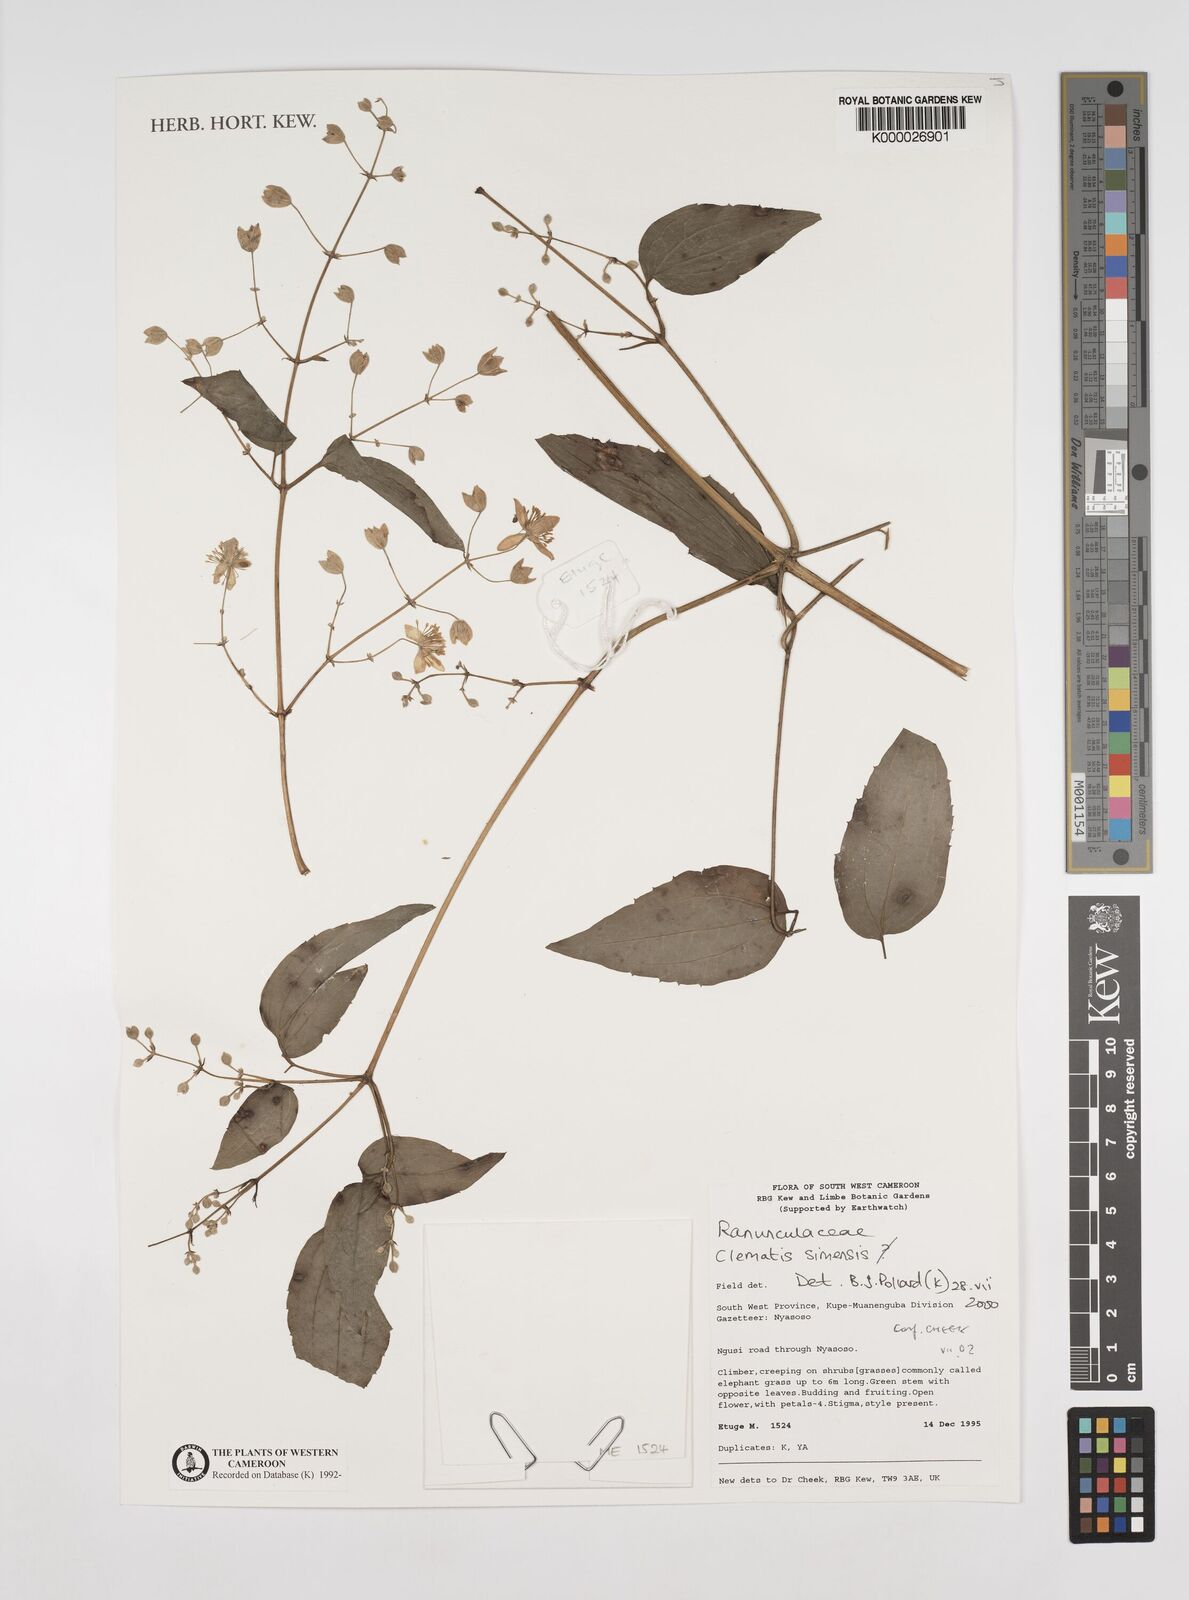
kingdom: Plantae
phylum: Tracheophyta
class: Magnoliopsida
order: Ranunculales
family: Ranunculaceae
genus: Clematis
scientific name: Clematis simensis
